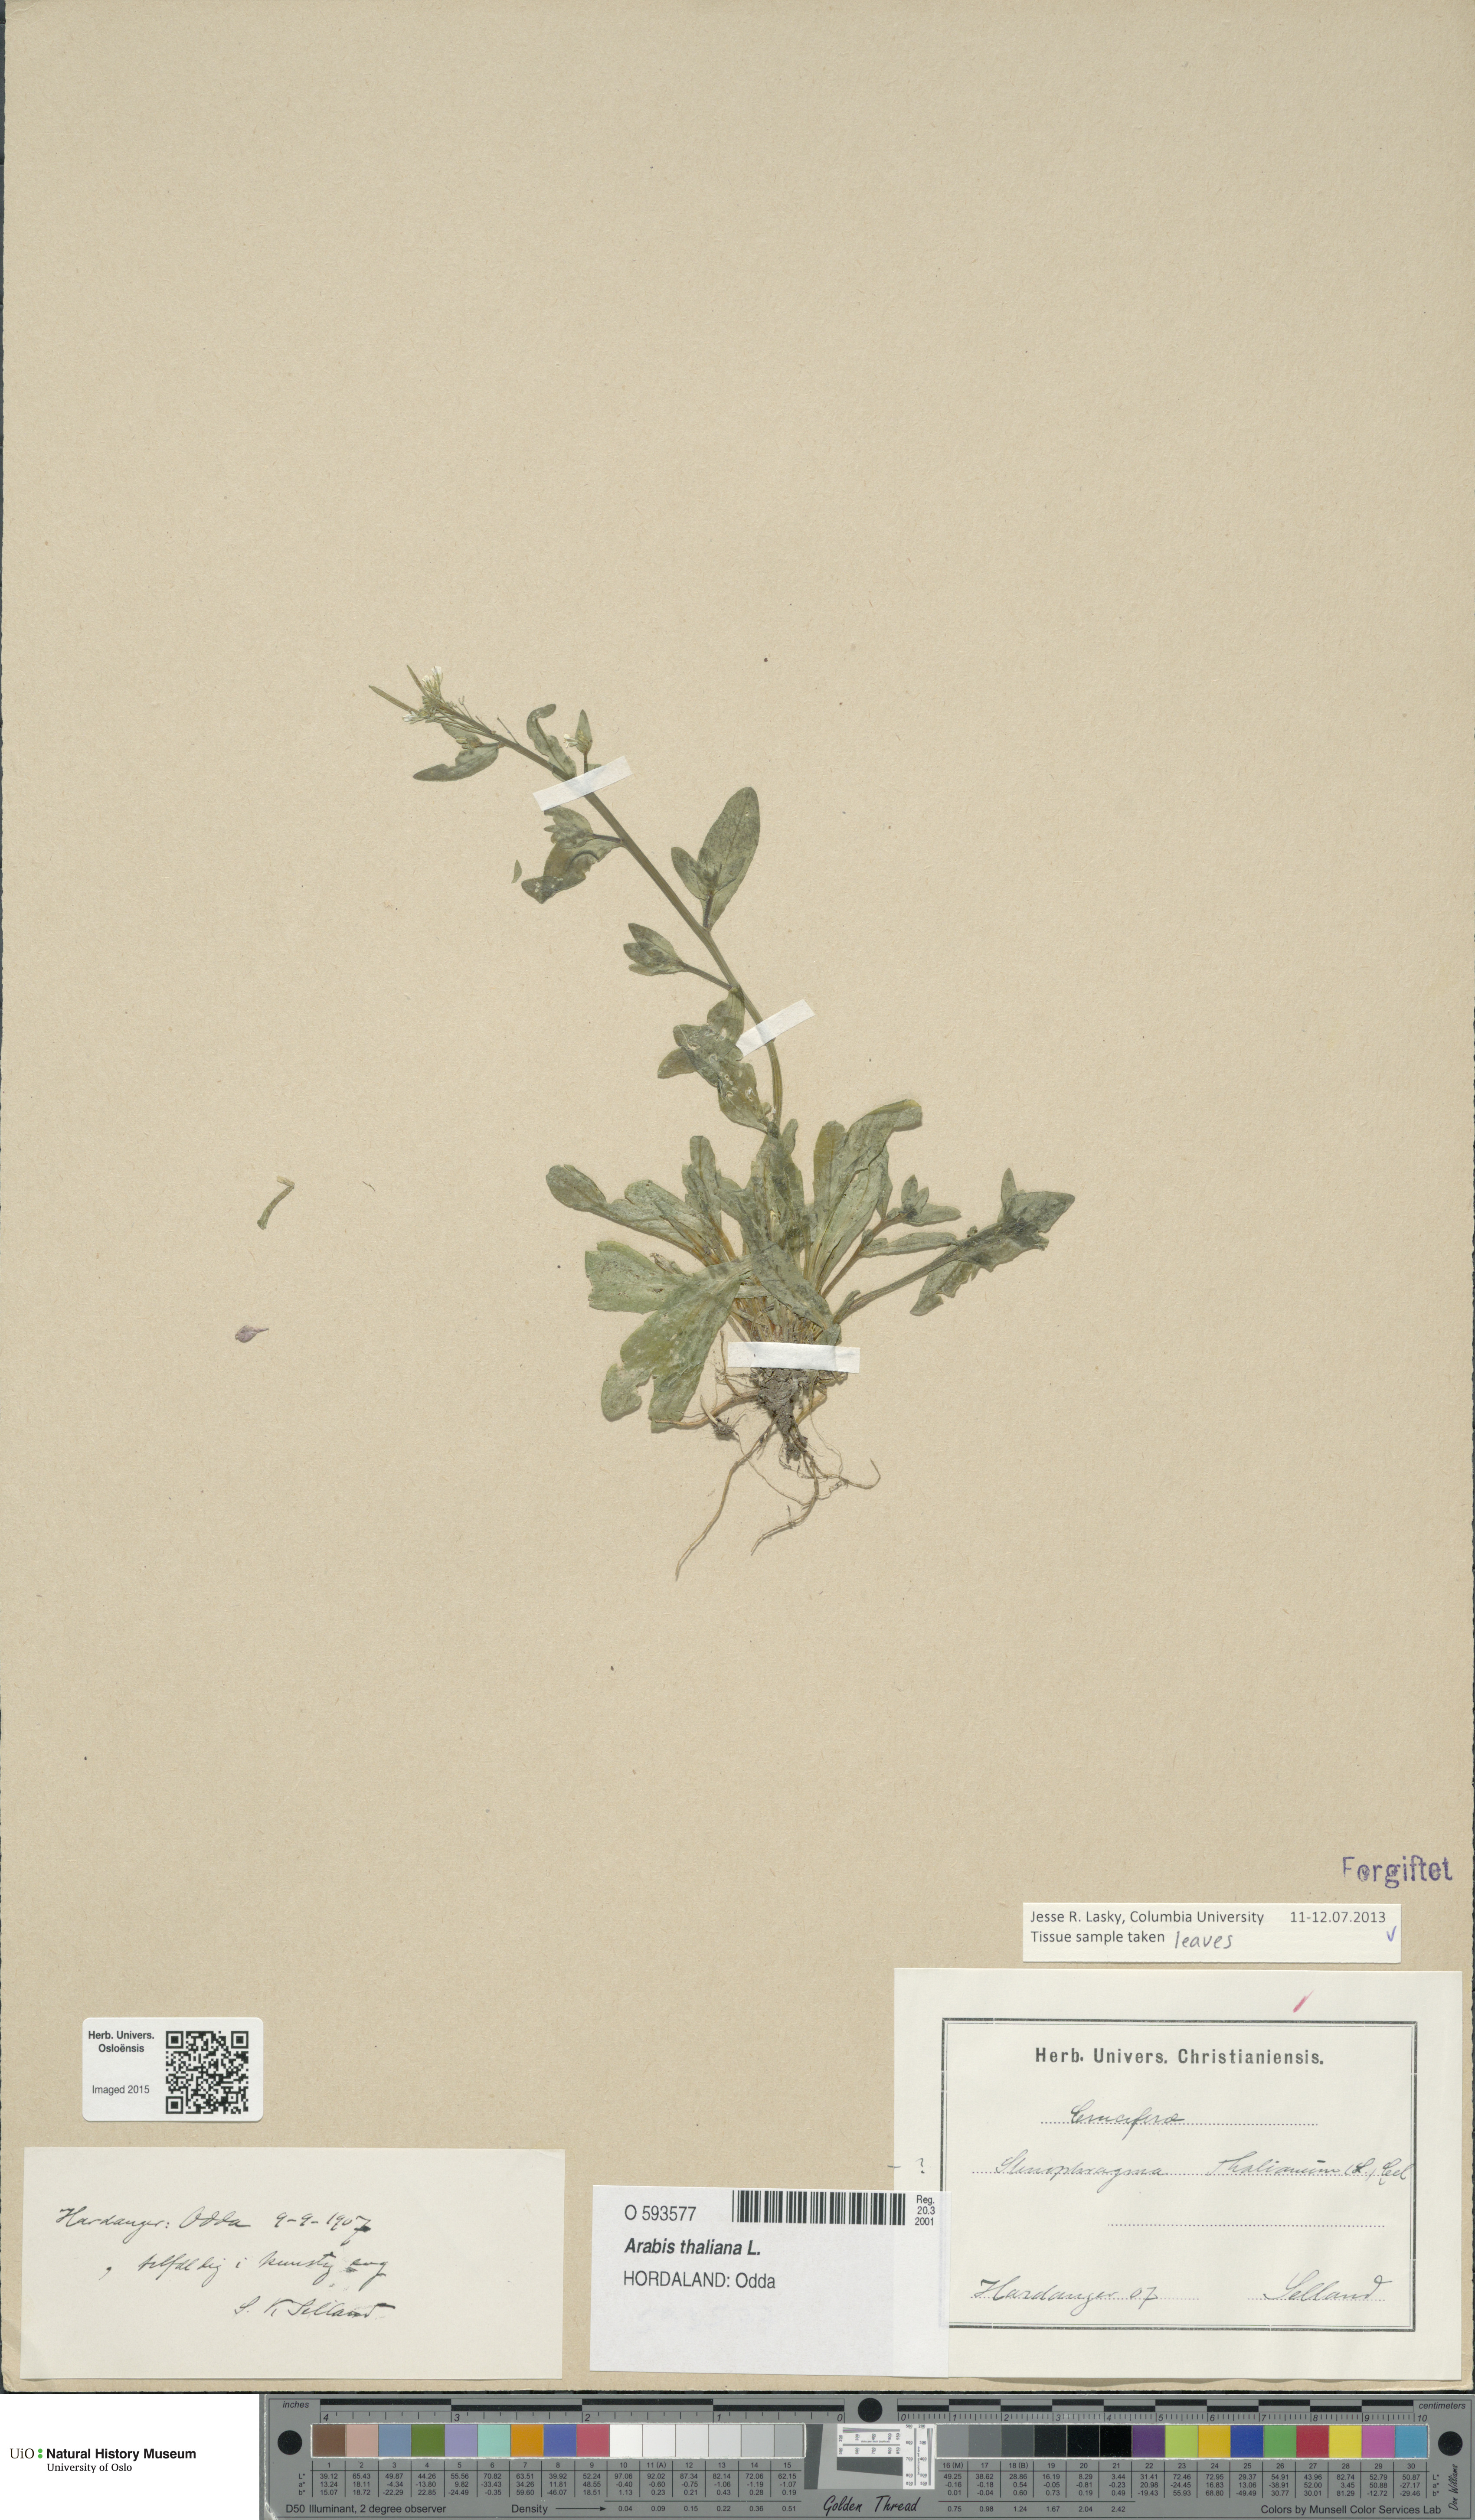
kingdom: Plantae
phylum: Tracheophyta
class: Magnoliopsida
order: Brassicales
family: Brassicaceae
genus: Arabidopsis
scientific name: Arabidopsis thaliana
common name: Thale cress
